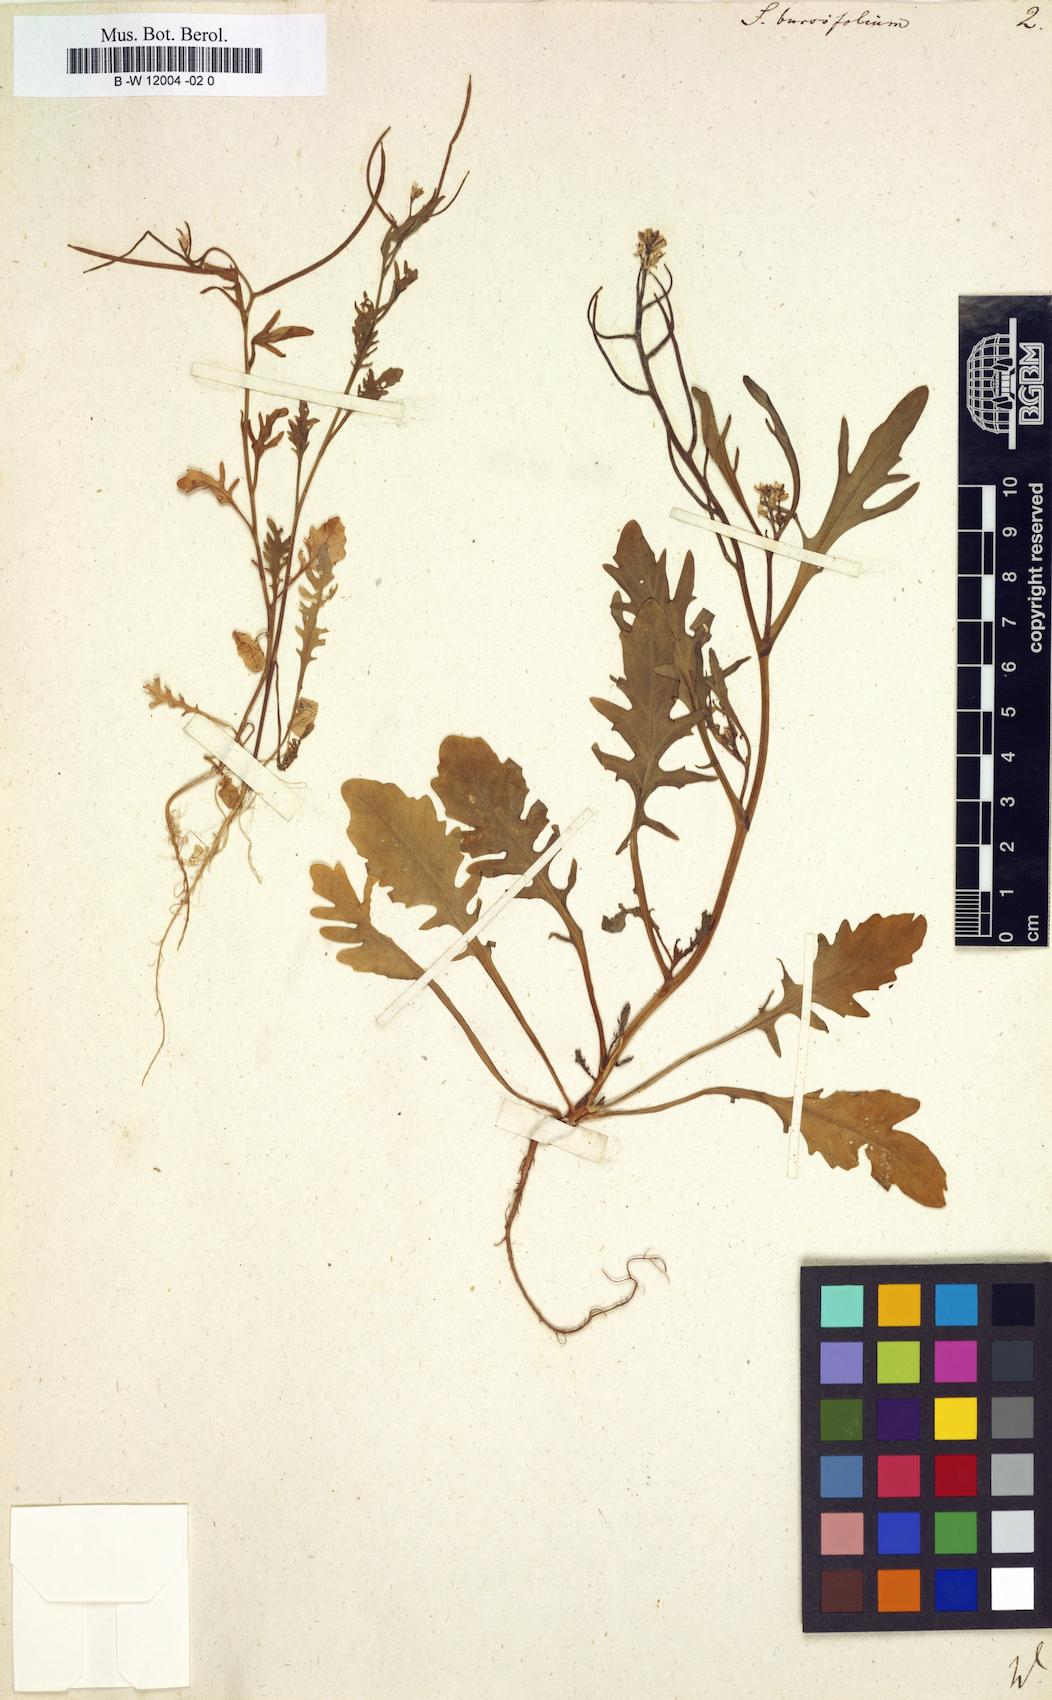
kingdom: Plantae
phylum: Tracheophyta
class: Magnoliopsida
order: Brassicales
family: Brassicaceae
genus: Sisymbrium
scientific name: Sisymbrium bursifolium
